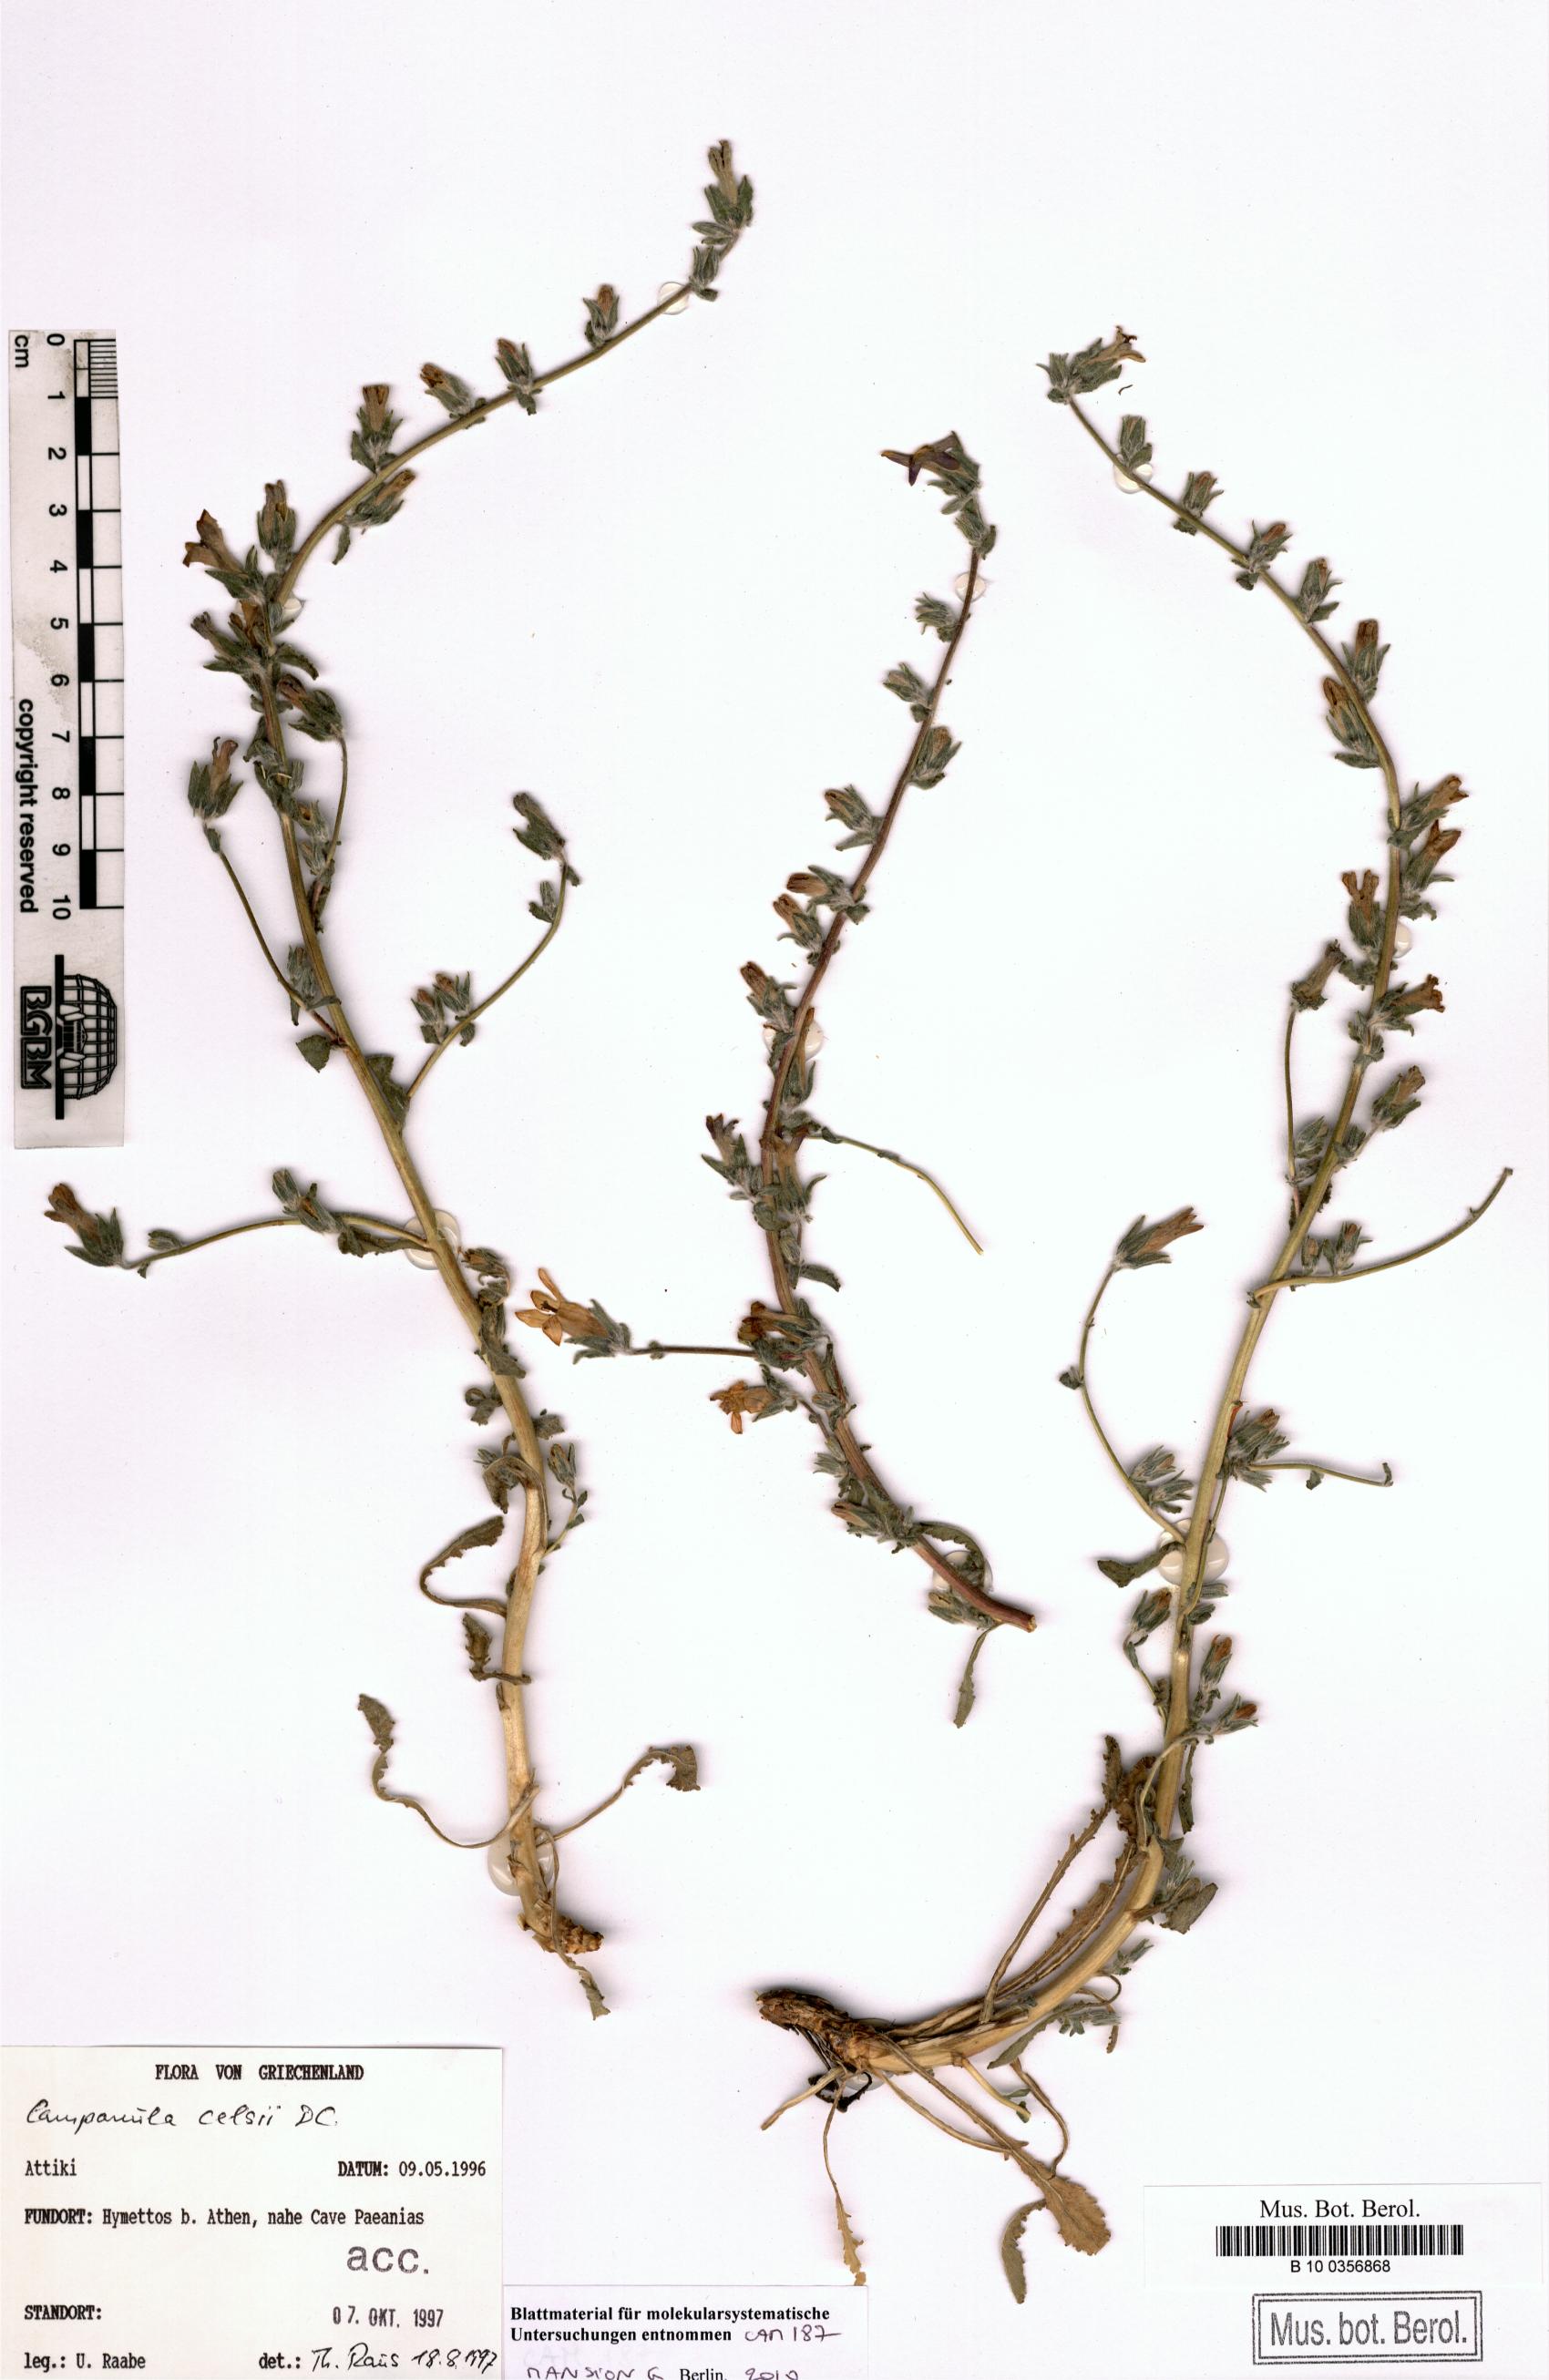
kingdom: Plantae
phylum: Tracheophyta
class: Magnoliopsida
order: Asterales
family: Campanulaceae
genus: Campanula
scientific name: Campanula celsii
